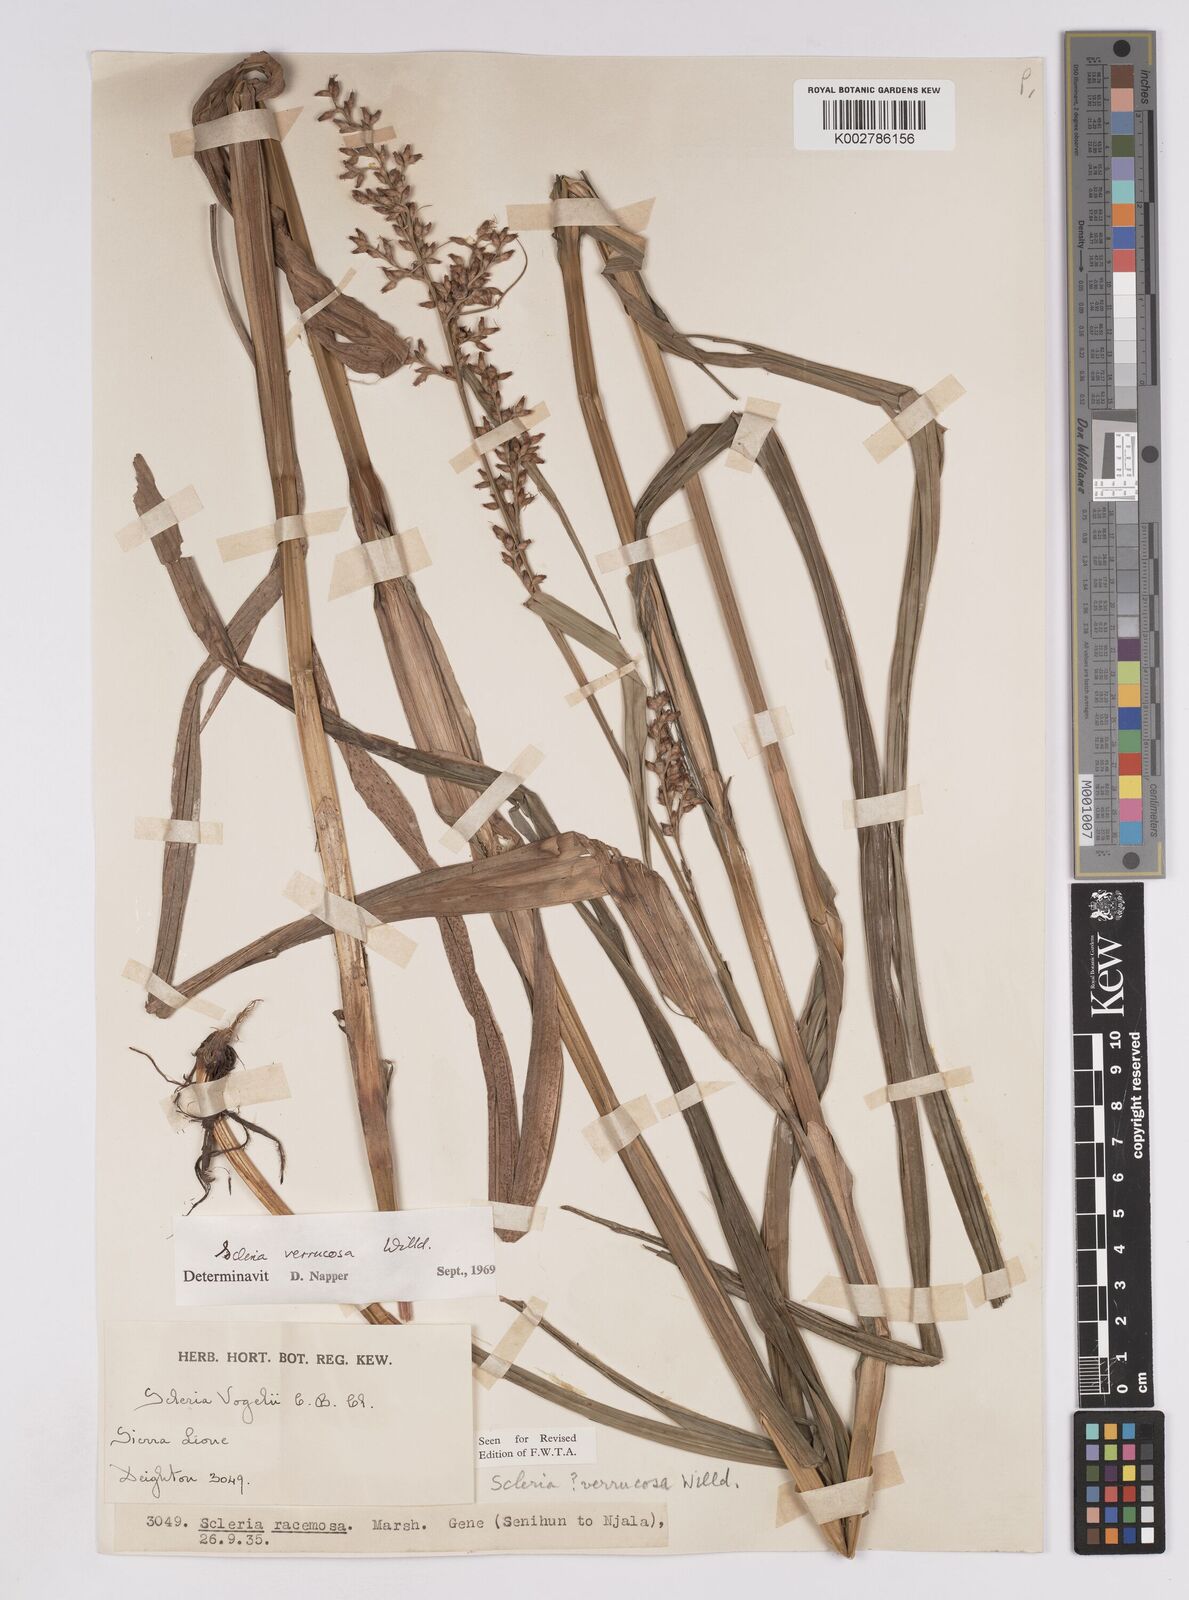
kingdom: Plantae
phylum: Tracheophyta
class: Liliopsida
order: Poales
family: Cyperaceae
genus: Scleria
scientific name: Scleria verrucosa
